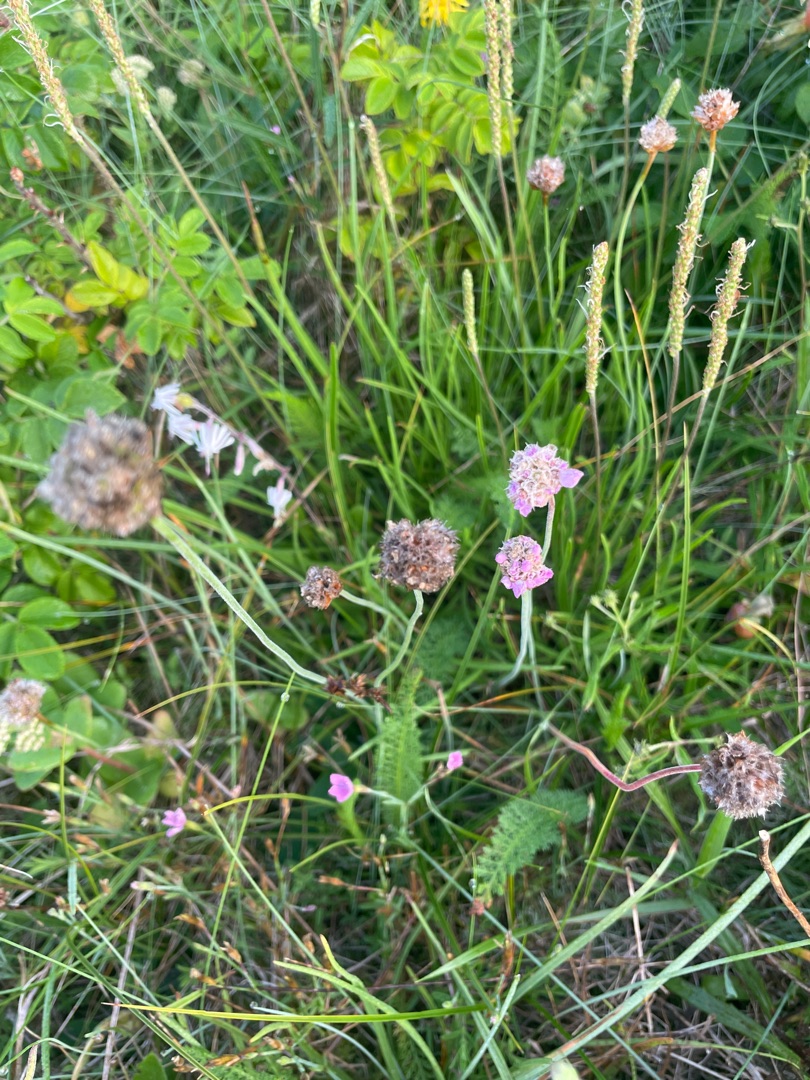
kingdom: Plantae
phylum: Tracheophyta
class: Magnoliopsida
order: Caryophyllales
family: Plumbaginaceae
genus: Armeria
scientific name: Armeria maritima
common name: Engelskgræs
